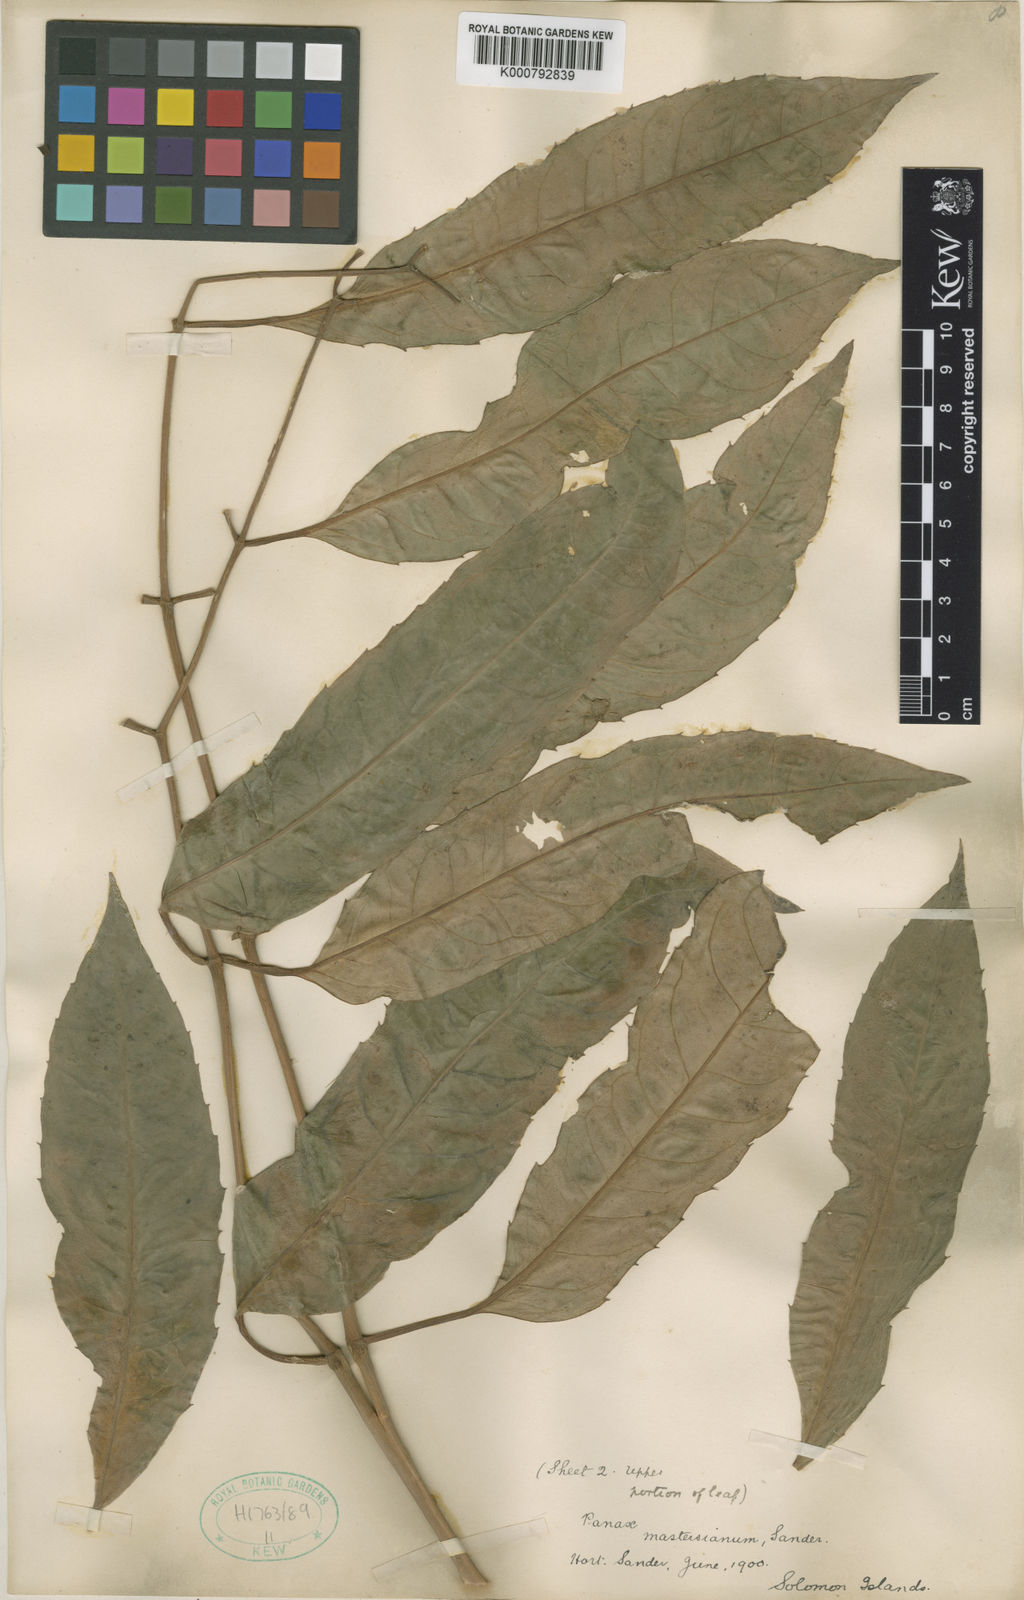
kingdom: Plantae
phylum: Tracheophyta
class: Magnoliopsida
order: Apiales
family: Araliaceae
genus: Polyscias
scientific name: Polyscias
